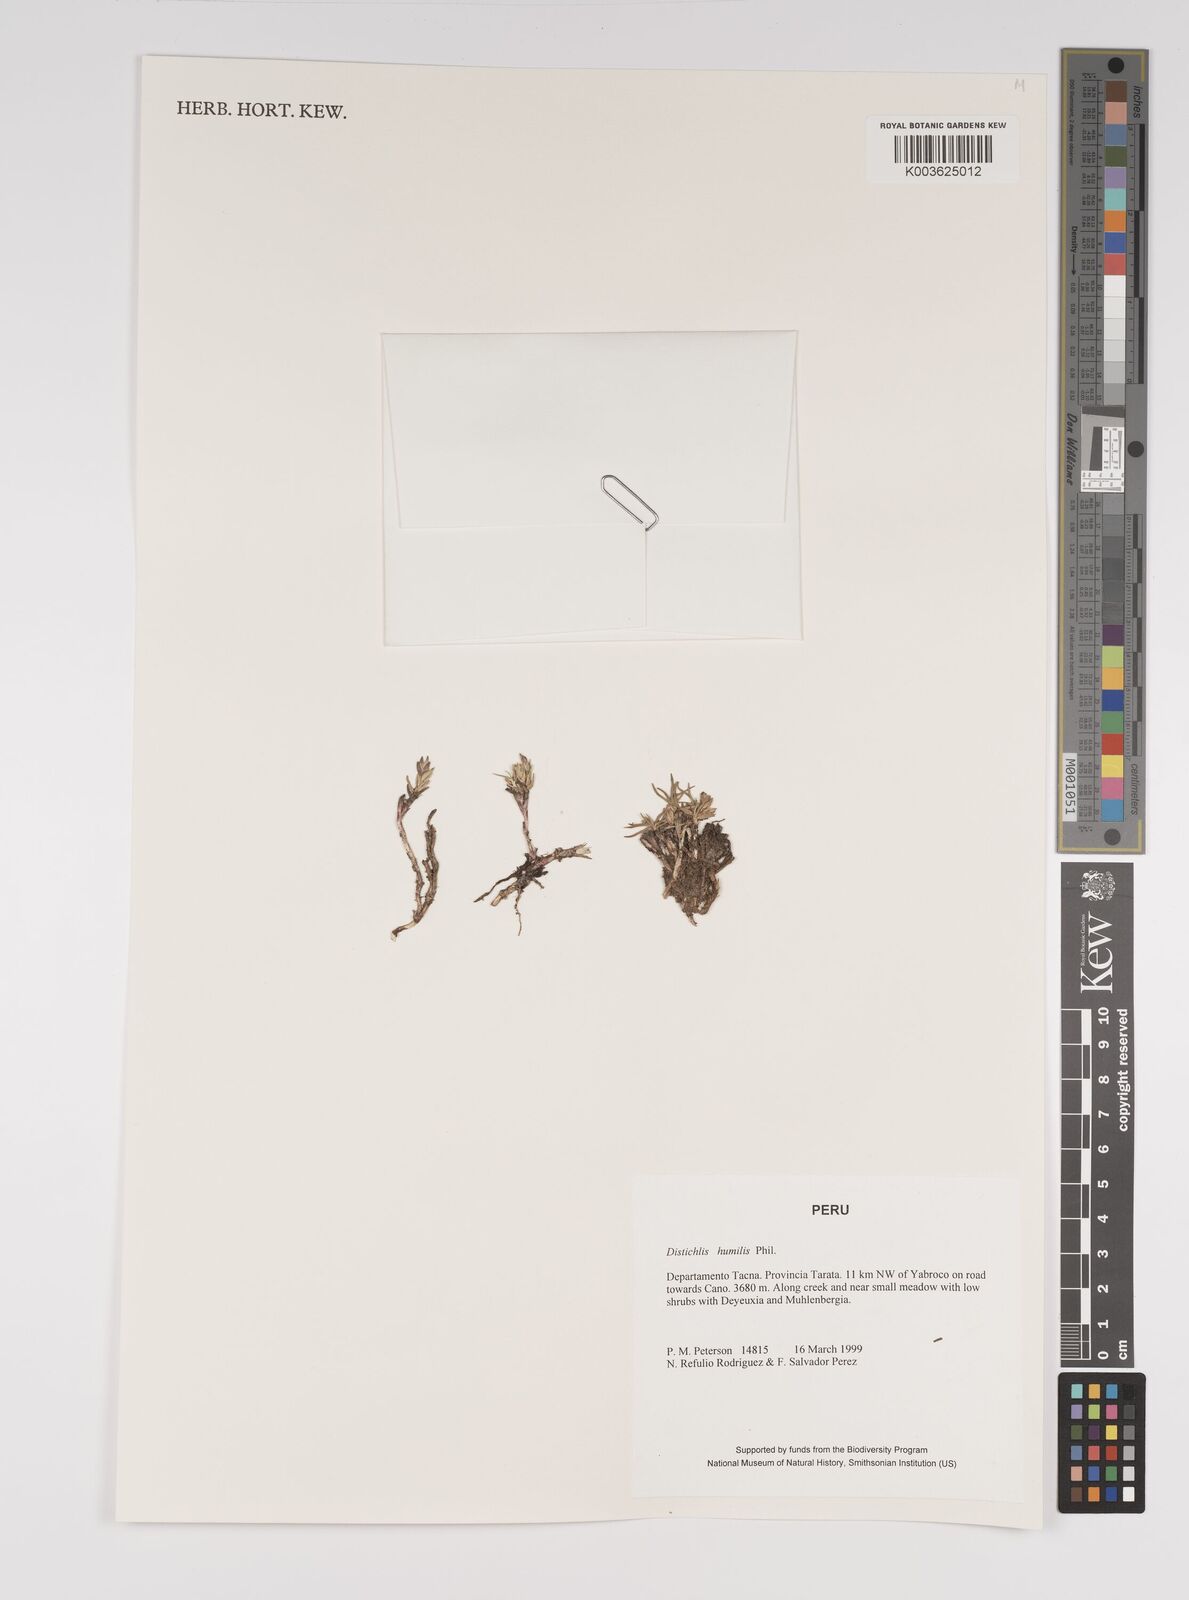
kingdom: Plantae
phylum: Tracheophyta
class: Liliopsida
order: Poales
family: Poaceae
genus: Distichlis
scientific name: Distichlis humilis
